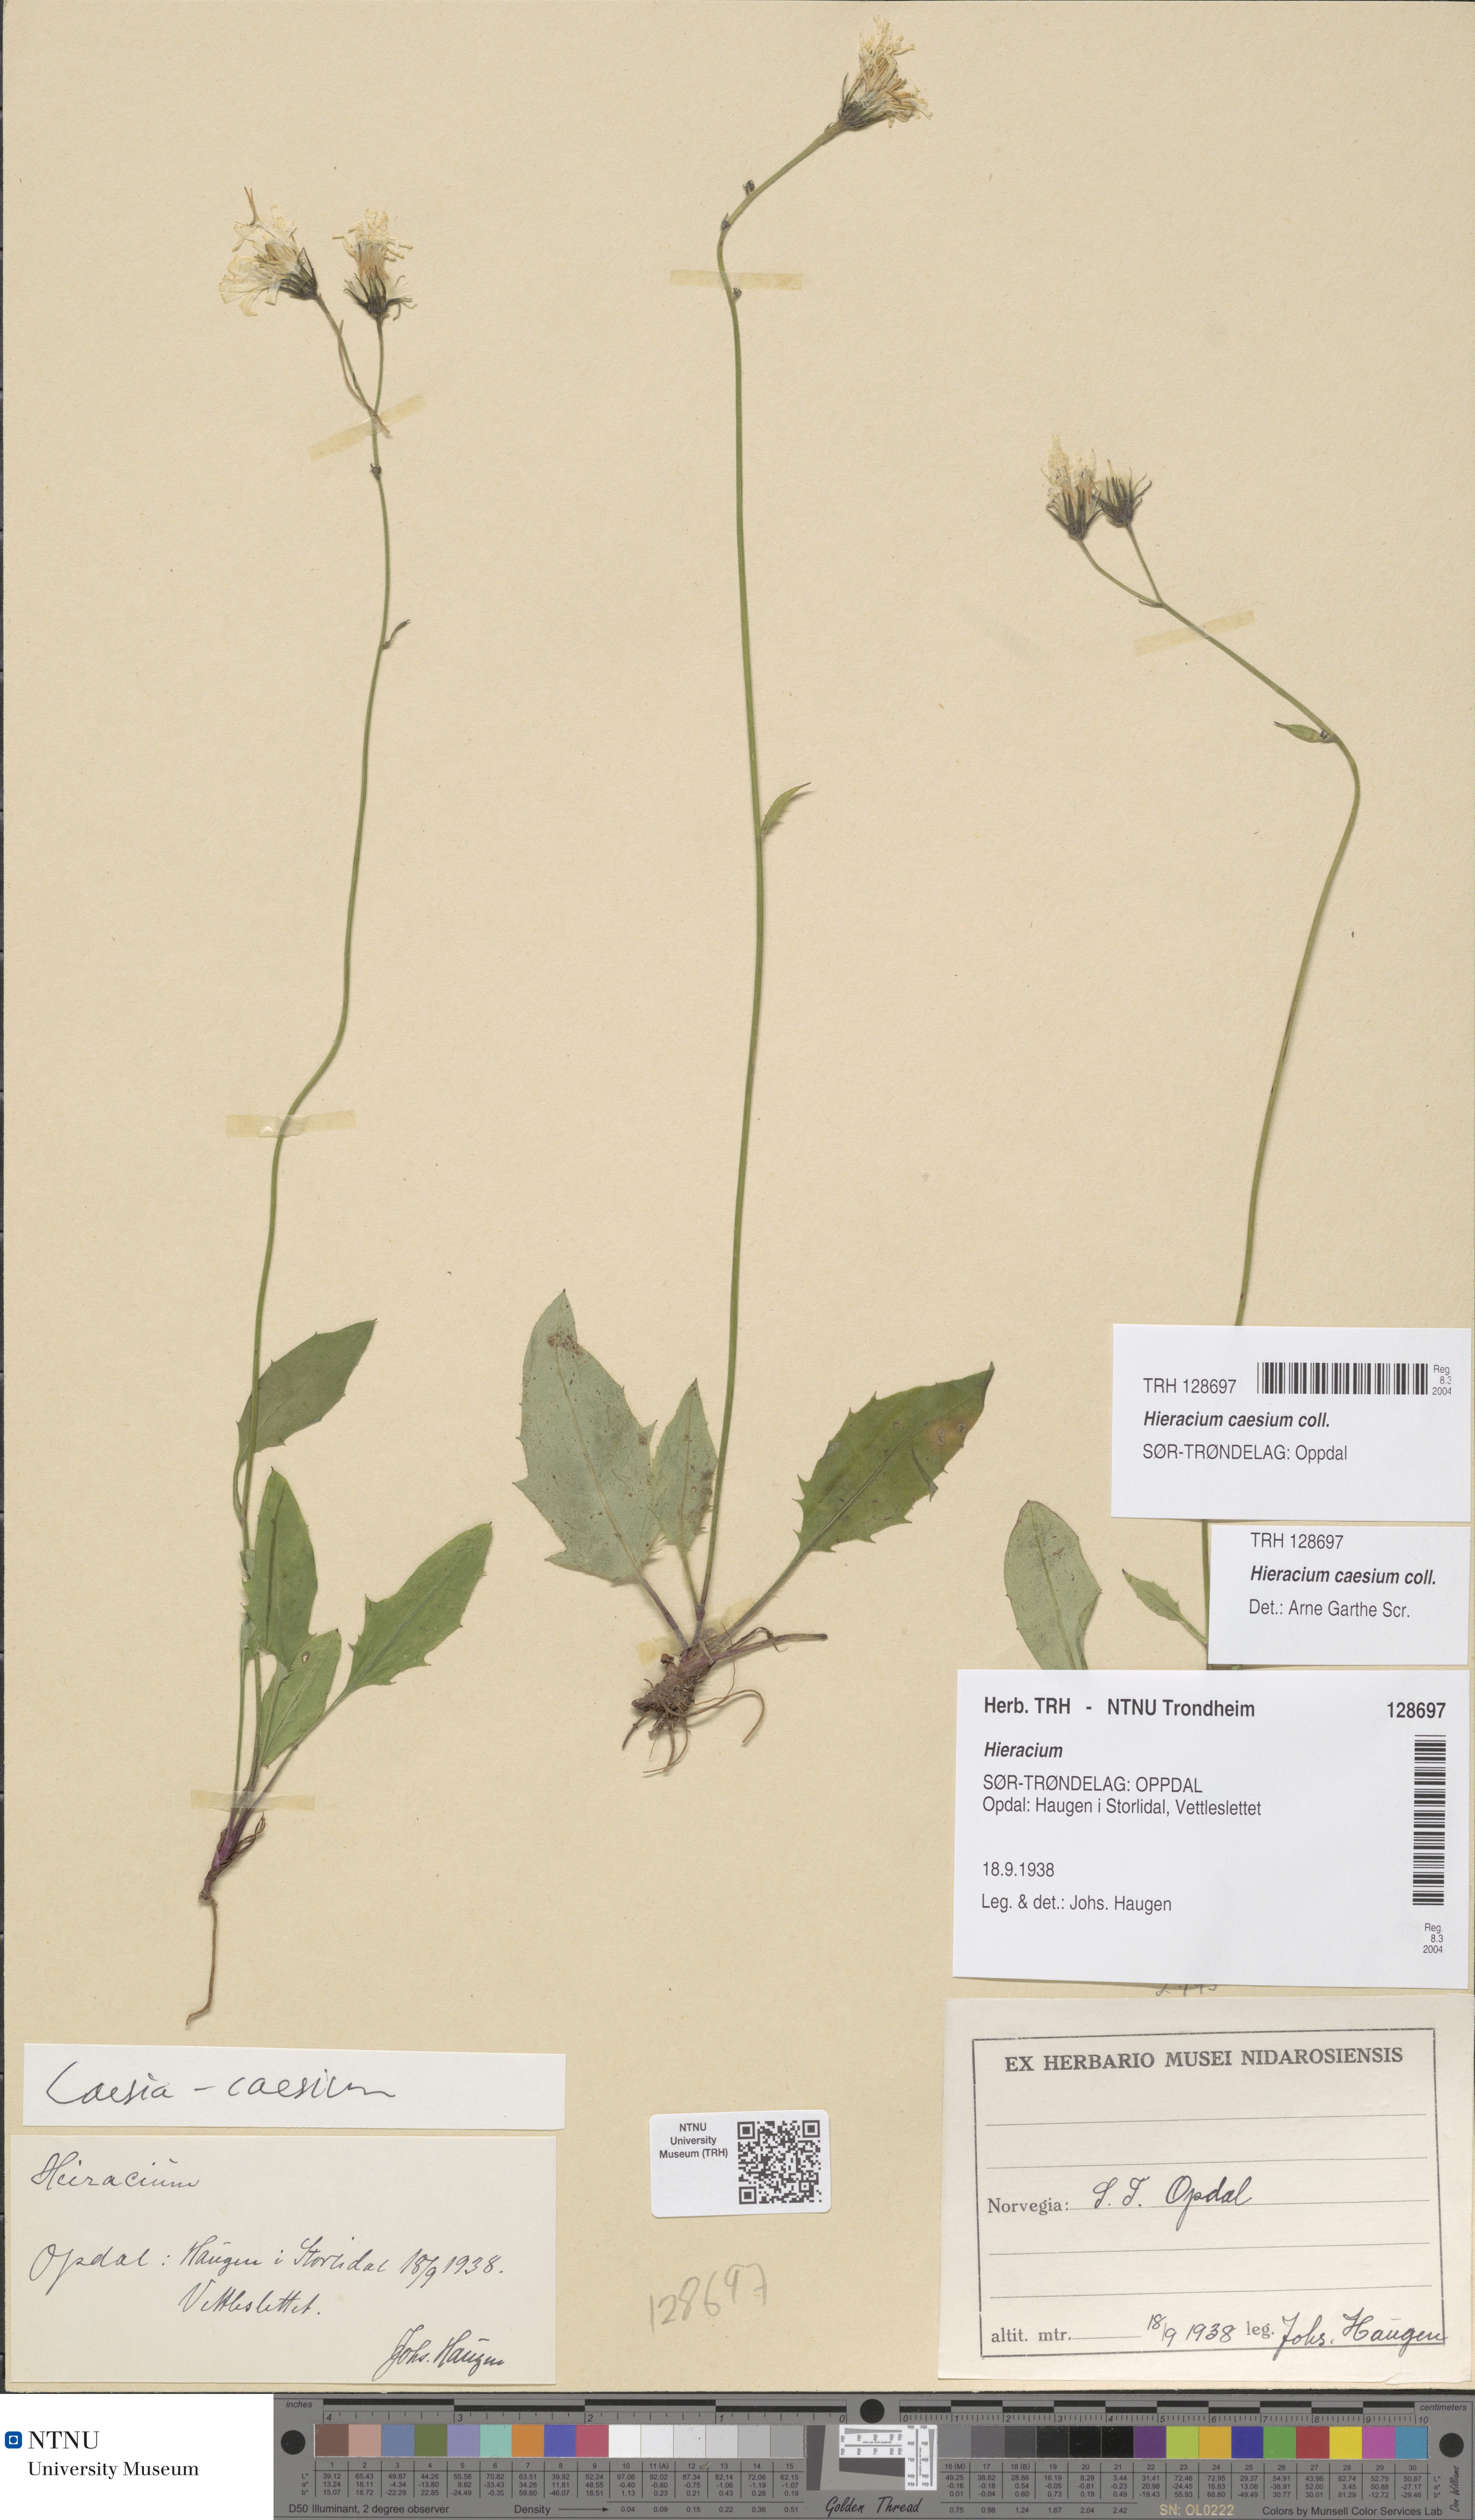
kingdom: Plantae
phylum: Tracheophyta
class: Magnoliopsida
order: Asterales
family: Asteraceae
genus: Hieracium
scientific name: Hieracium caesium
